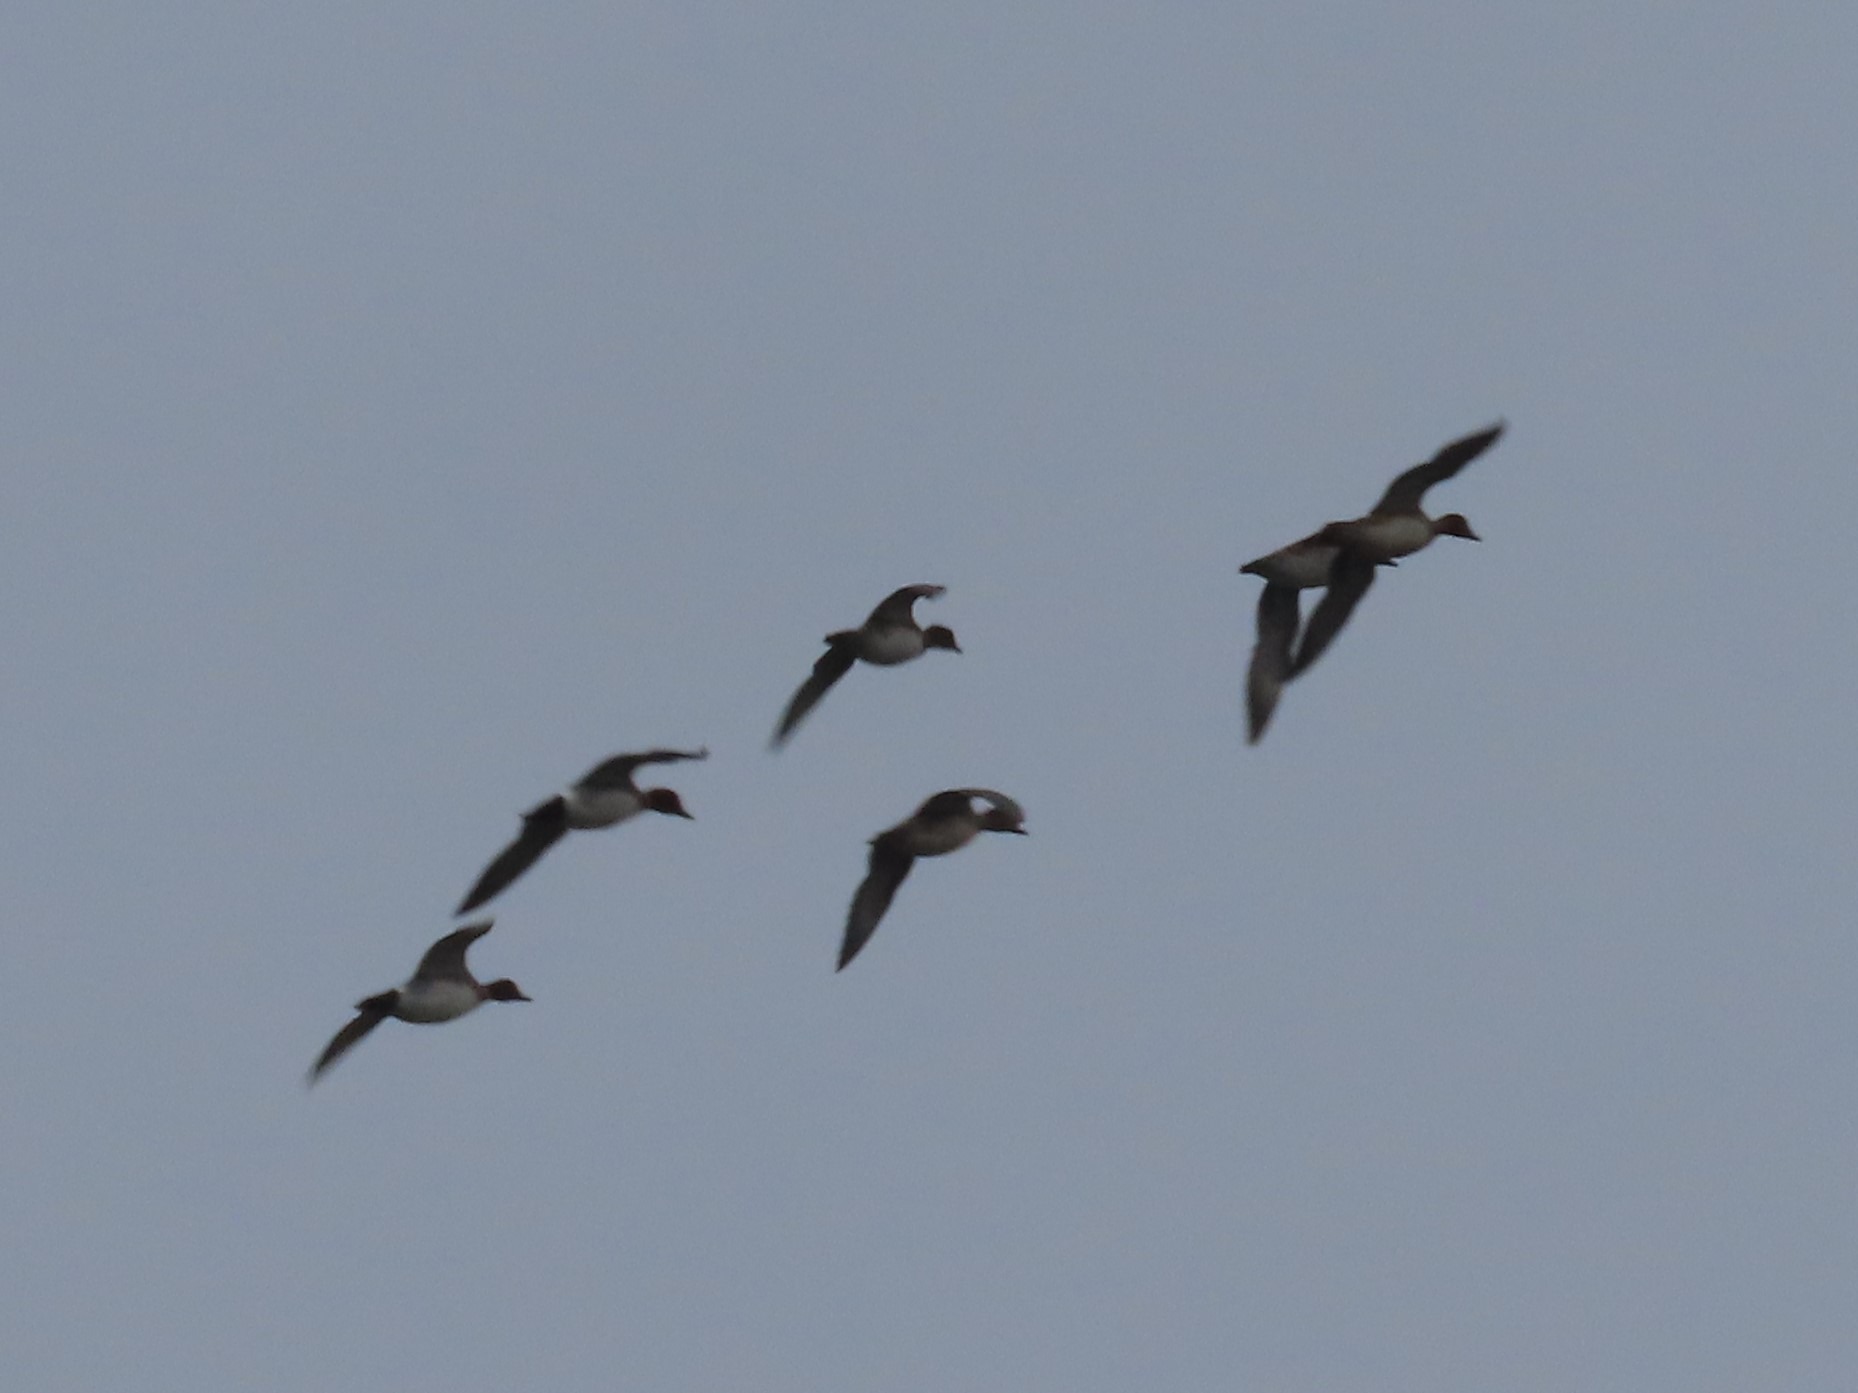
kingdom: Animalia
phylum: Chordata
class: Aves
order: Anseriformes
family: Anatidae
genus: Mareca
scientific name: Mareca penelope
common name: Pibeand
